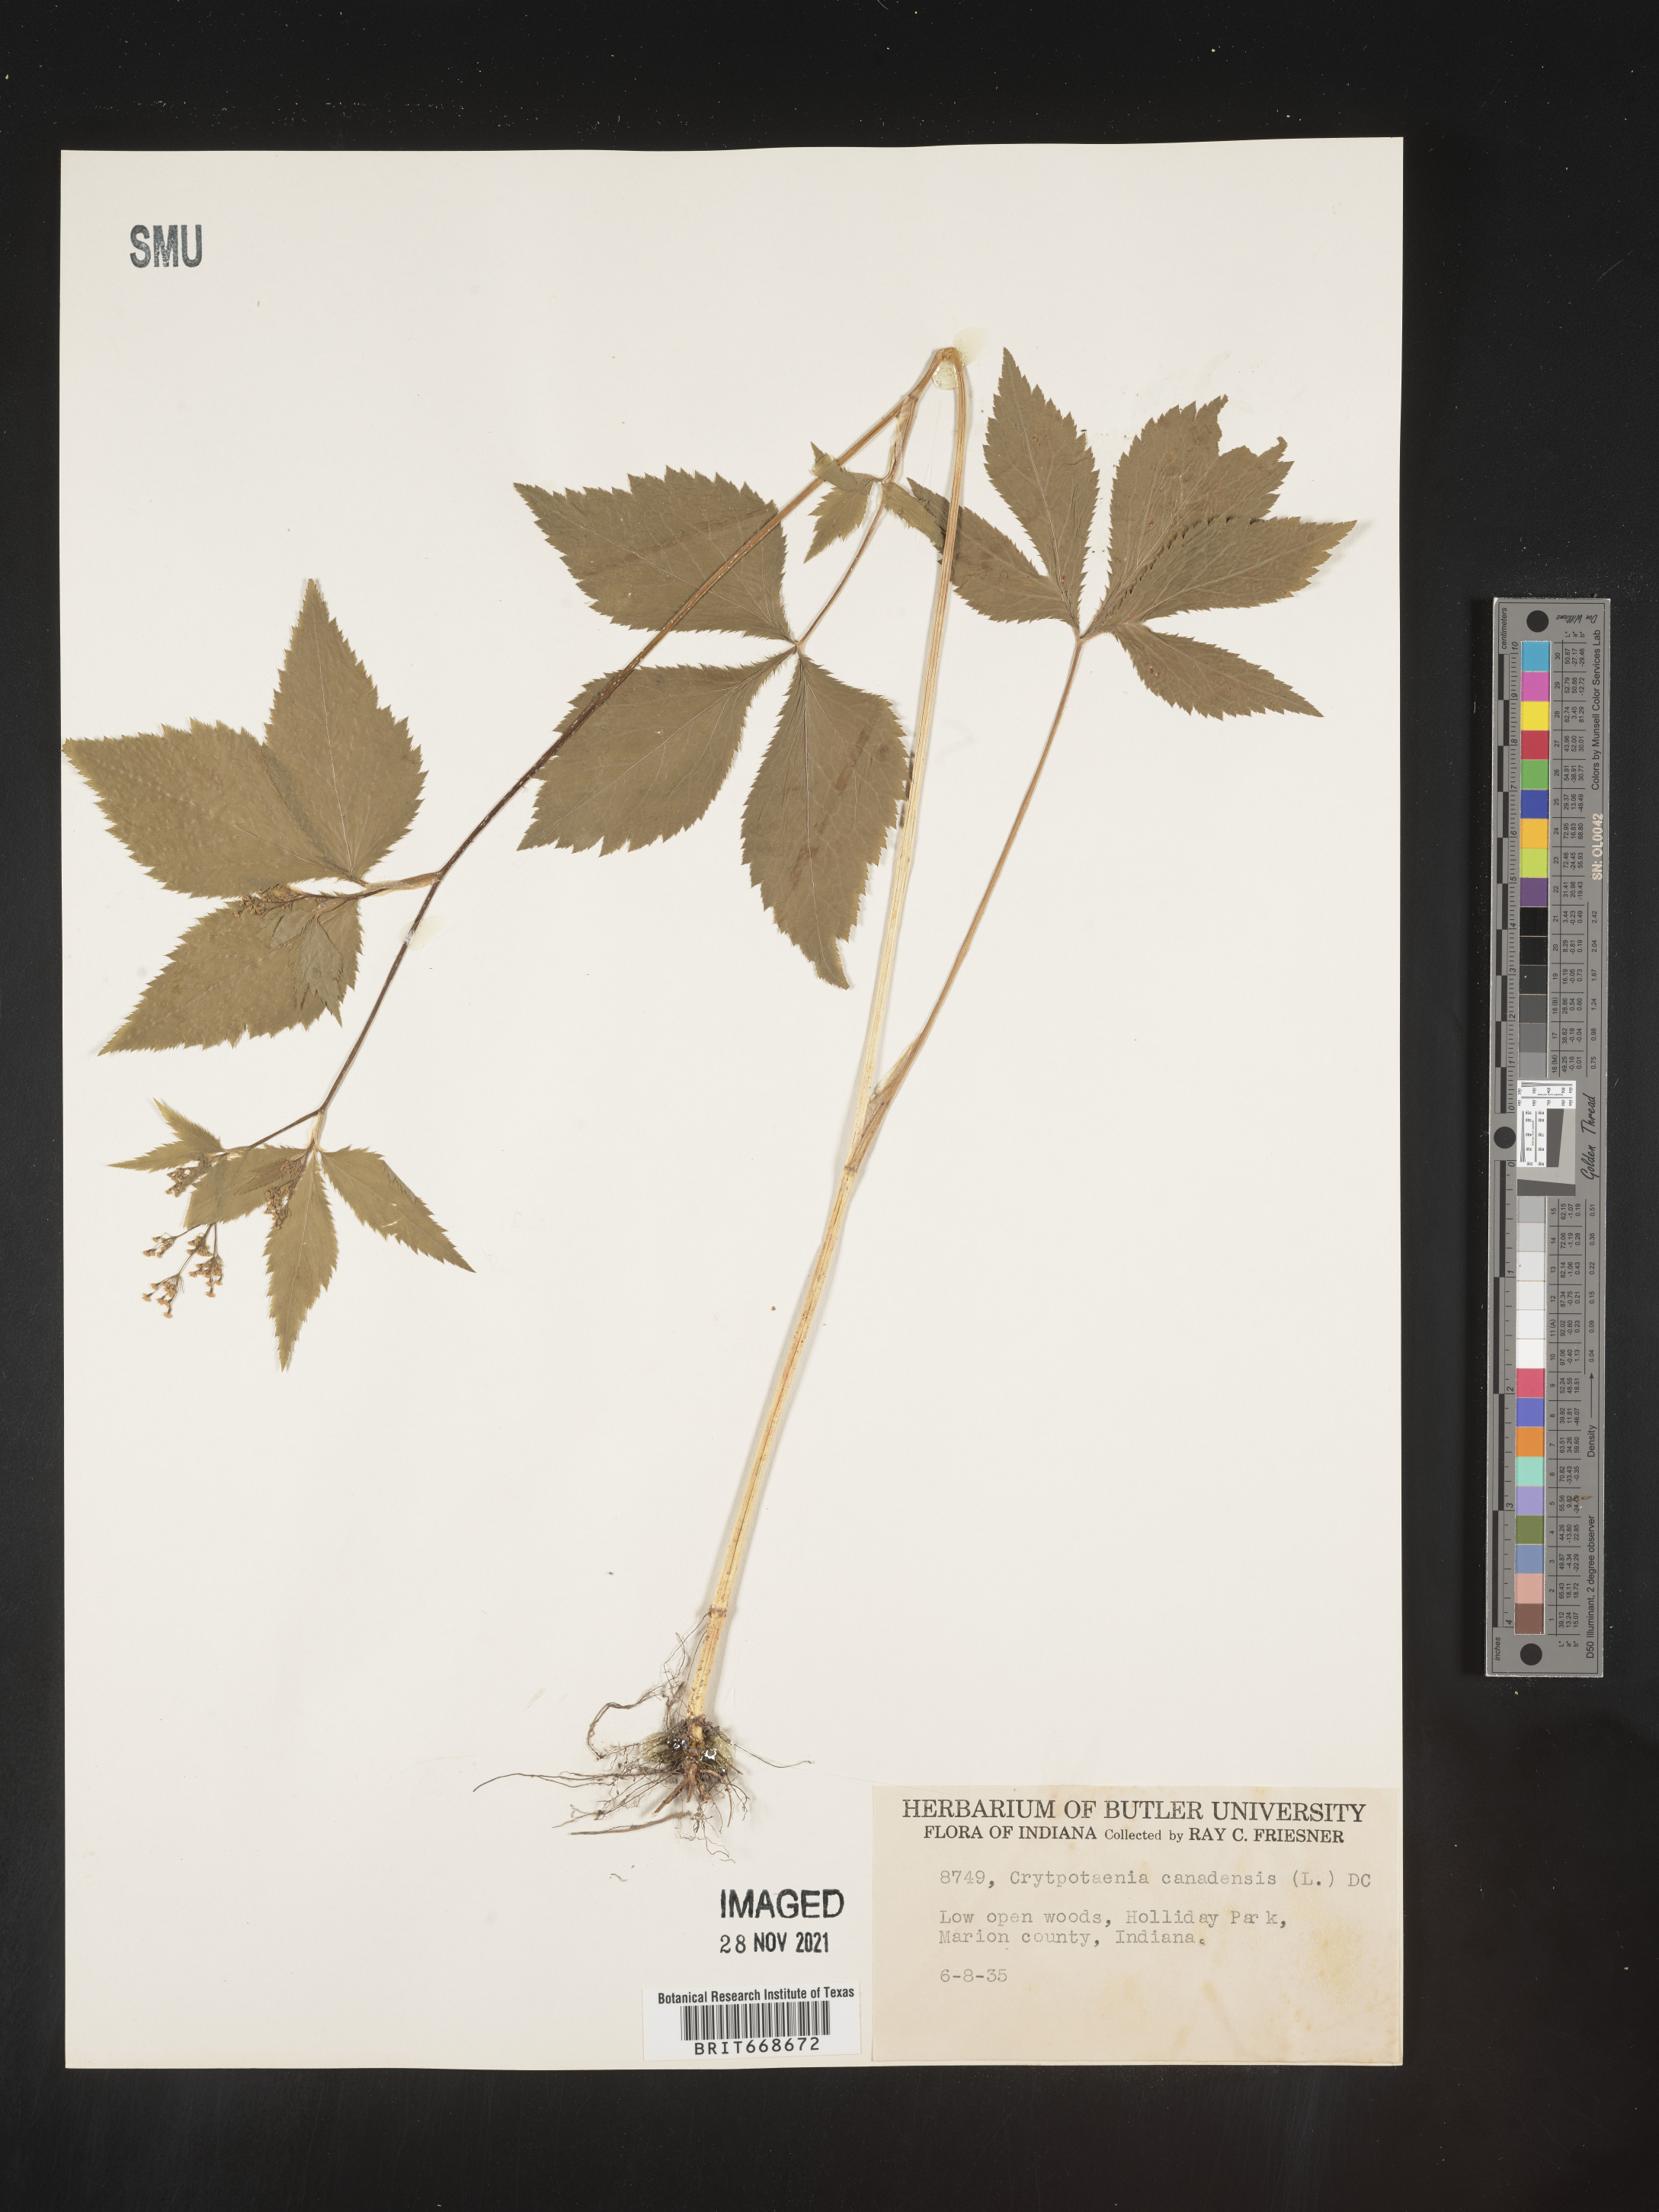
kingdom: Plantae
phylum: Tracheophyta
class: Magnoliopsida
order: Apiales
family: Apiaceae
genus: Cryptotaenia
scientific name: Cryptotaenia canadensis
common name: Honewort
